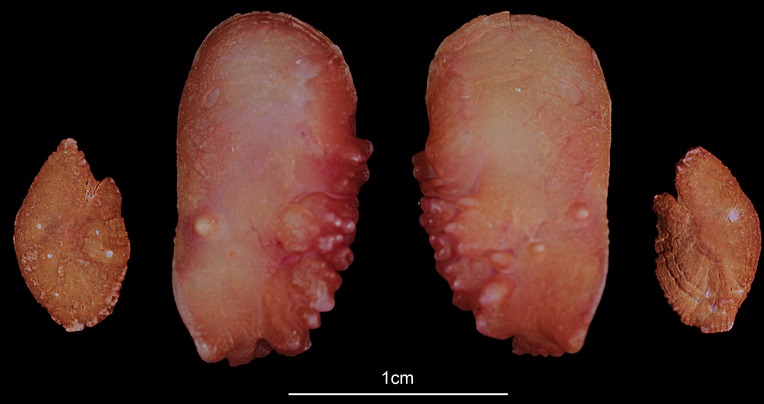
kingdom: Animalia
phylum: Chordata
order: Perciformes
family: Lutjanidae
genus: Lutjanus
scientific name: Lutjanus gibbus
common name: Humpback snapper
